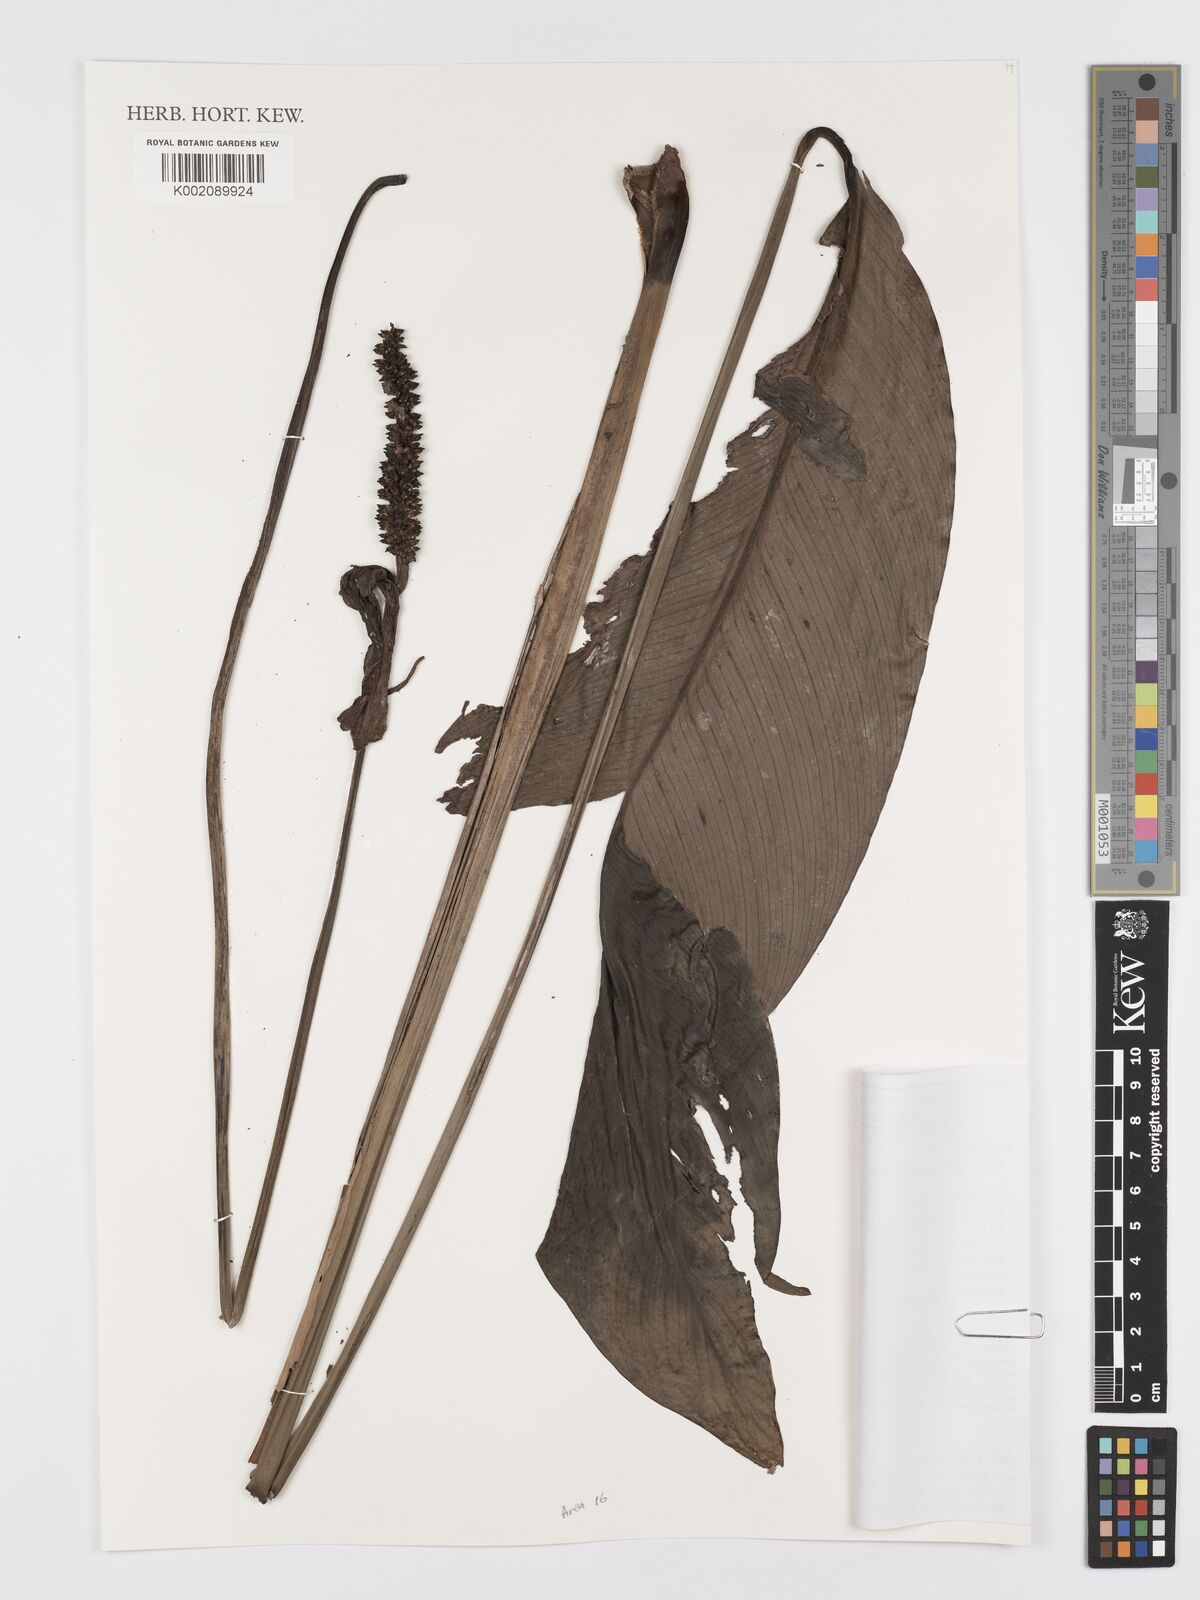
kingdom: Plantae
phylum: Tracheophyta
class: Liliopsida
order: Alismatales
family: Araceae
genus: Spathiphyllum
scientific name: Spathiphyllum humboldtii
